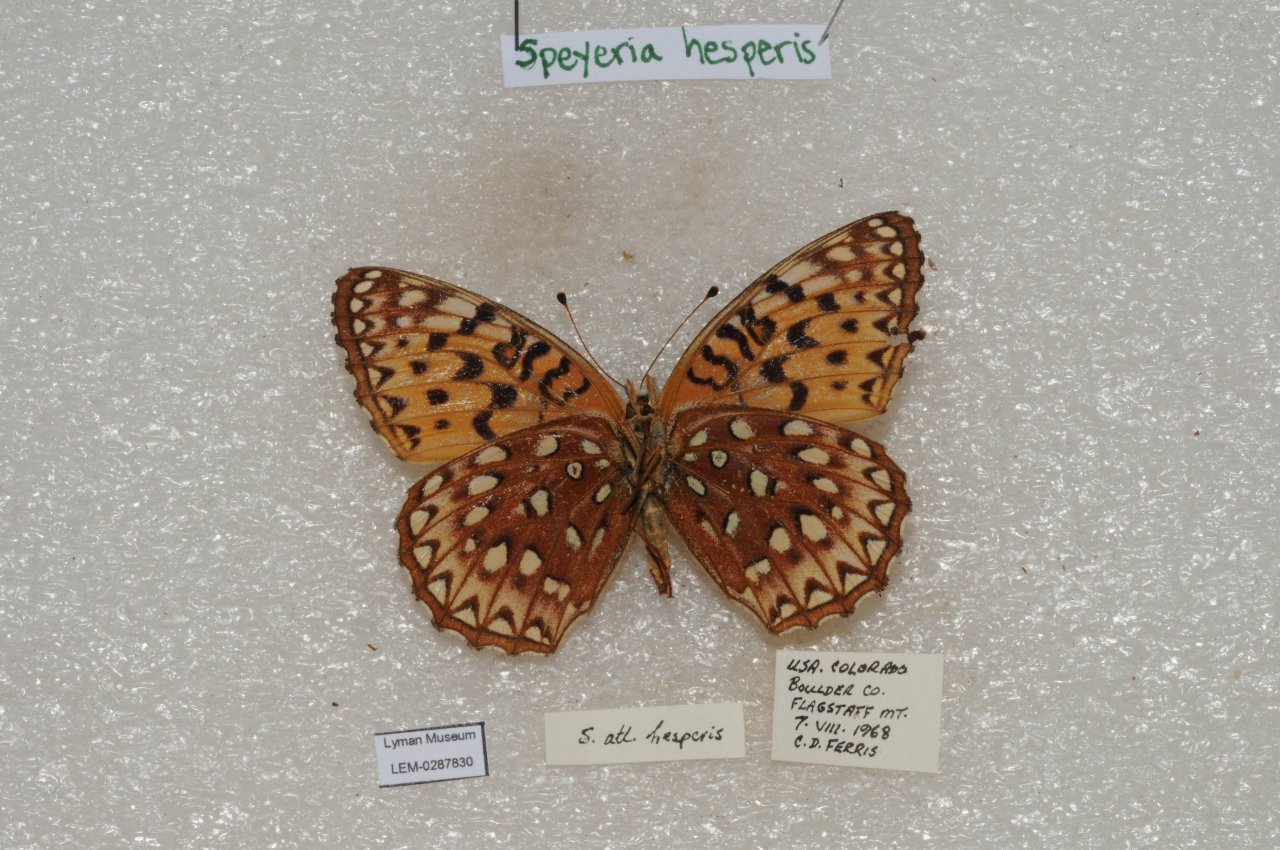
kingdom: Animalia
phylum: Arthropoda
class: Insecta
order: Lepidoptera
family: Nymphalidae
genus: Speyeria
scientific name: Speyeria atlantis
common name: Northwestern Fritillary
